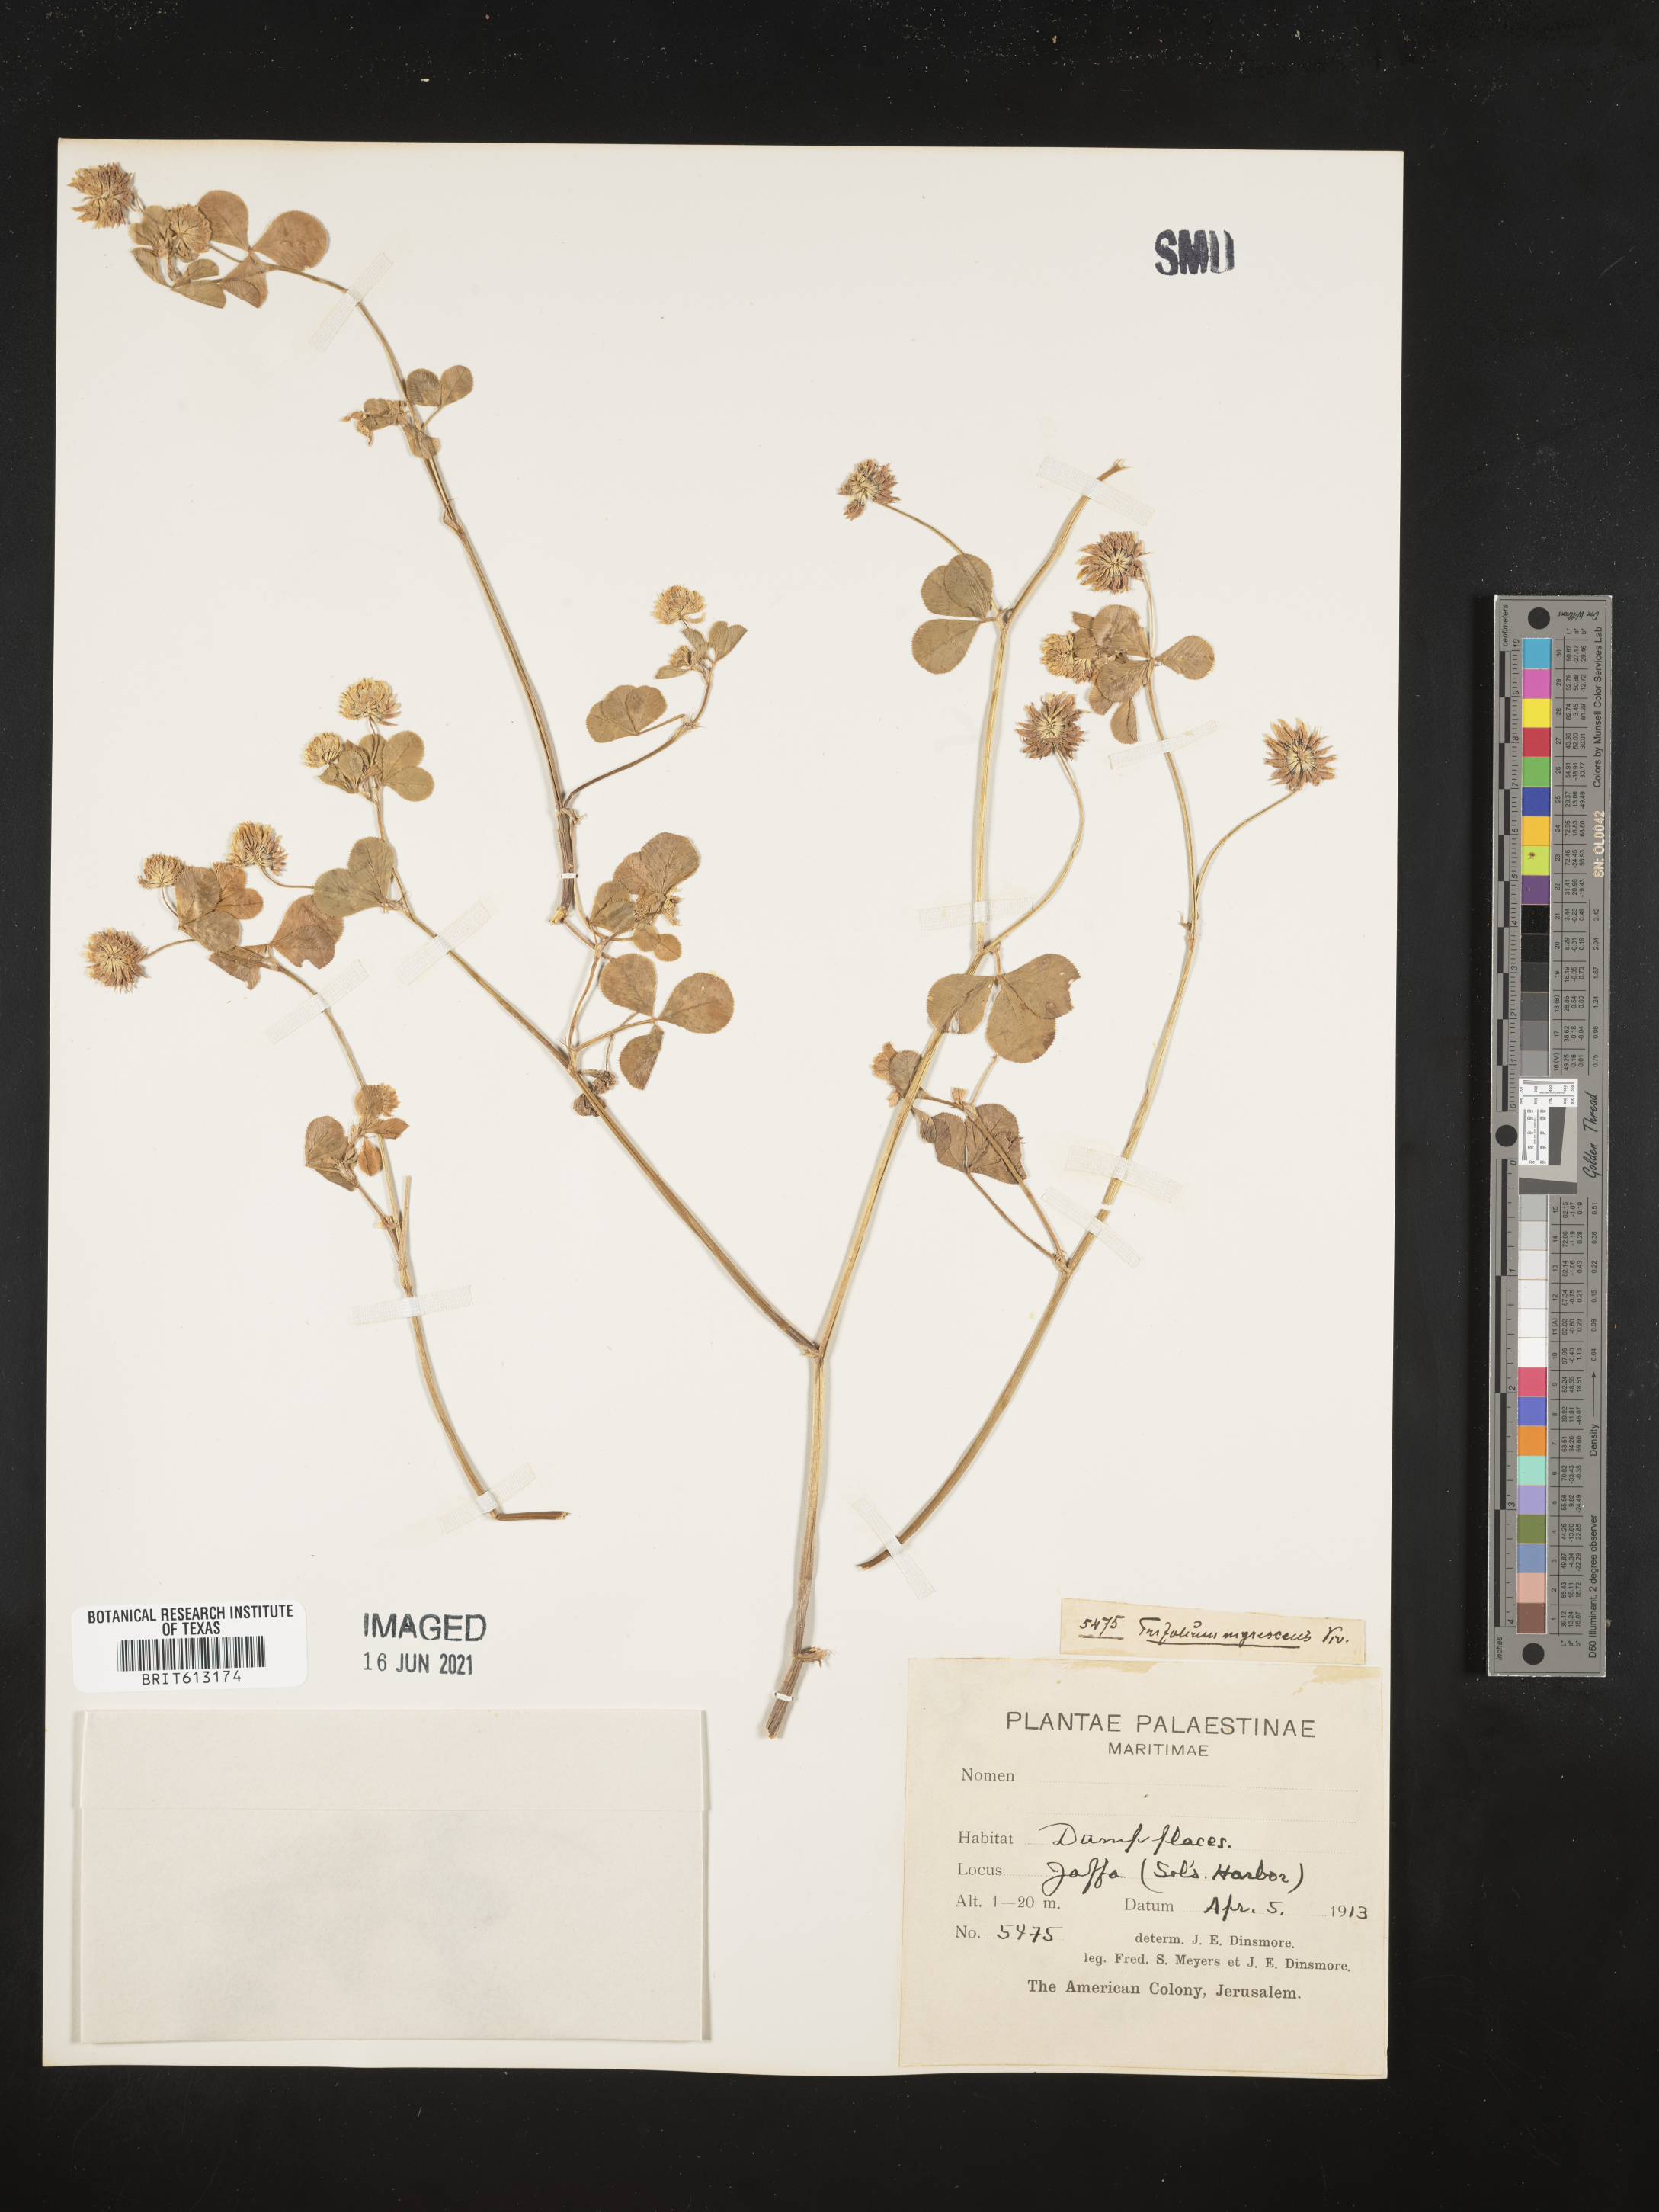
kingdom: Plantae
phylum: Tracheophyta
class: Magnoliopsida
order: Fabales
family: Fabaceae
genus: Trifolium
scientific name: Trifolium nigrescens
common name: Small white clover
